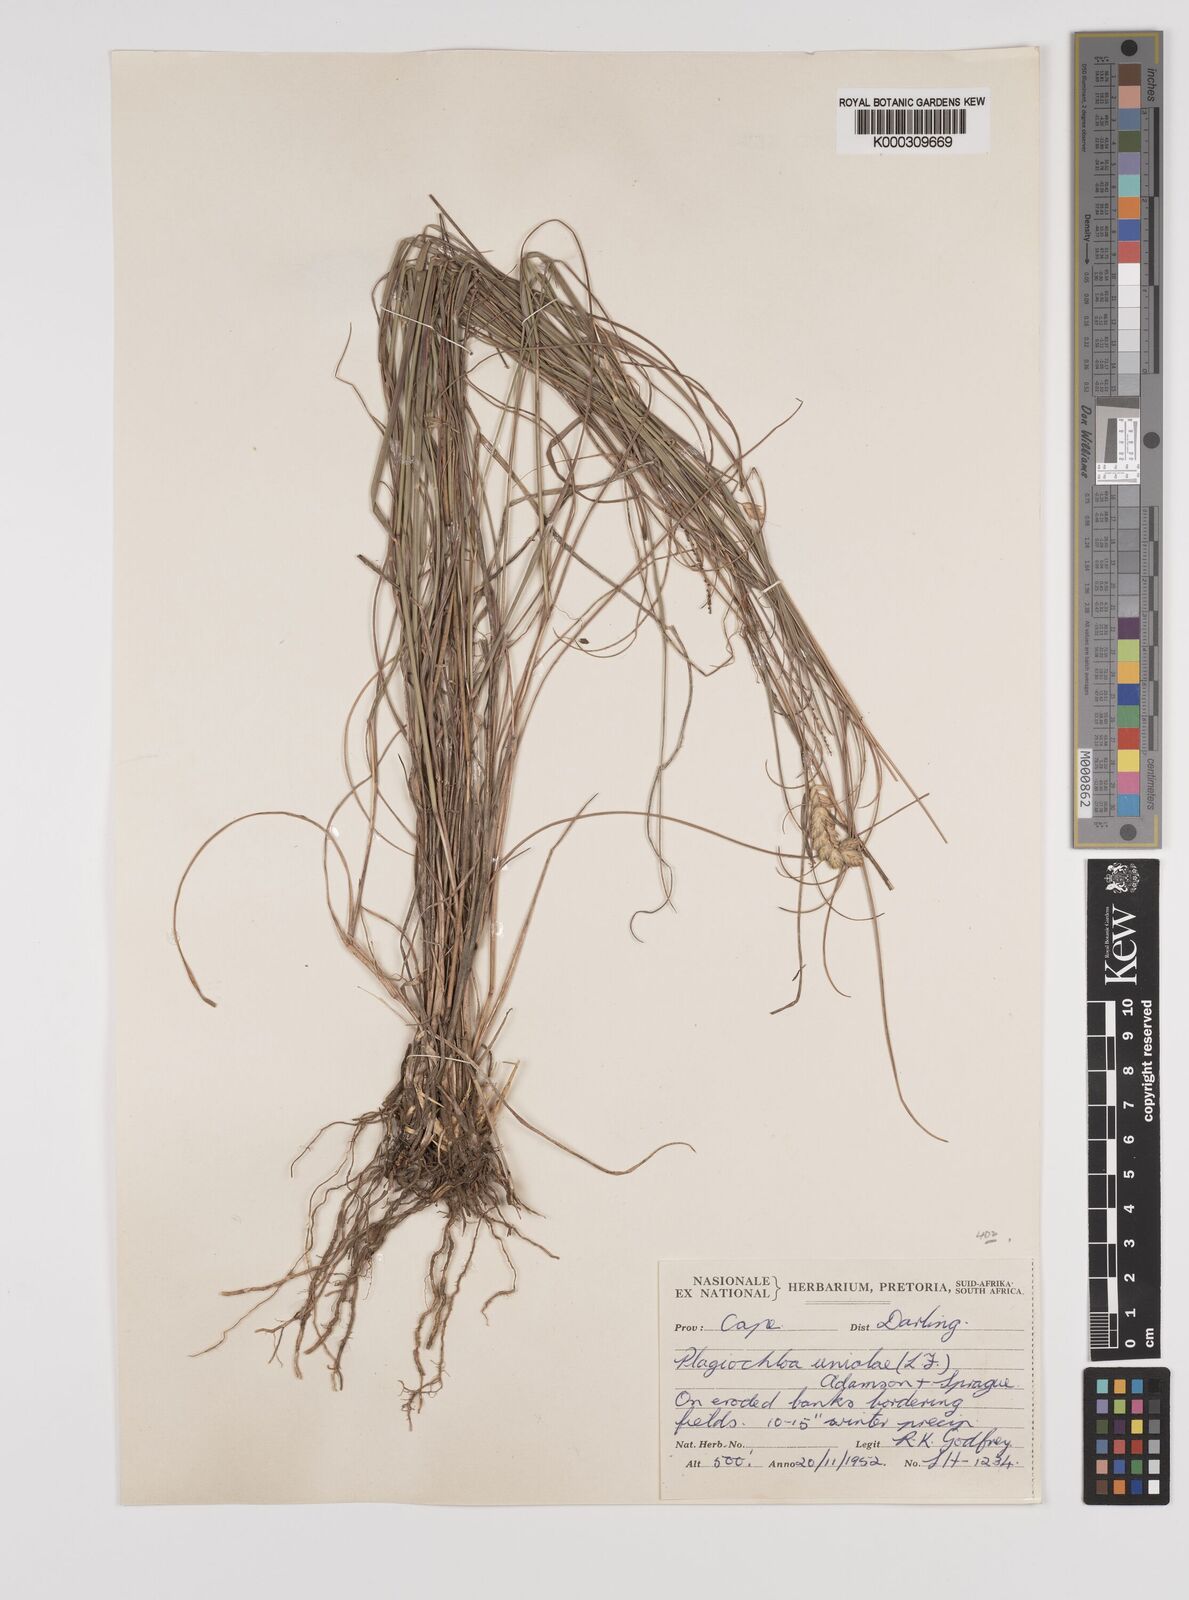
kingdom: Plantae
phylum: Tracheophyta
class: Liliopsida
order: Poales
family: Poaceae
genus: Tribolium
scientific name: Tribolium uniolae
